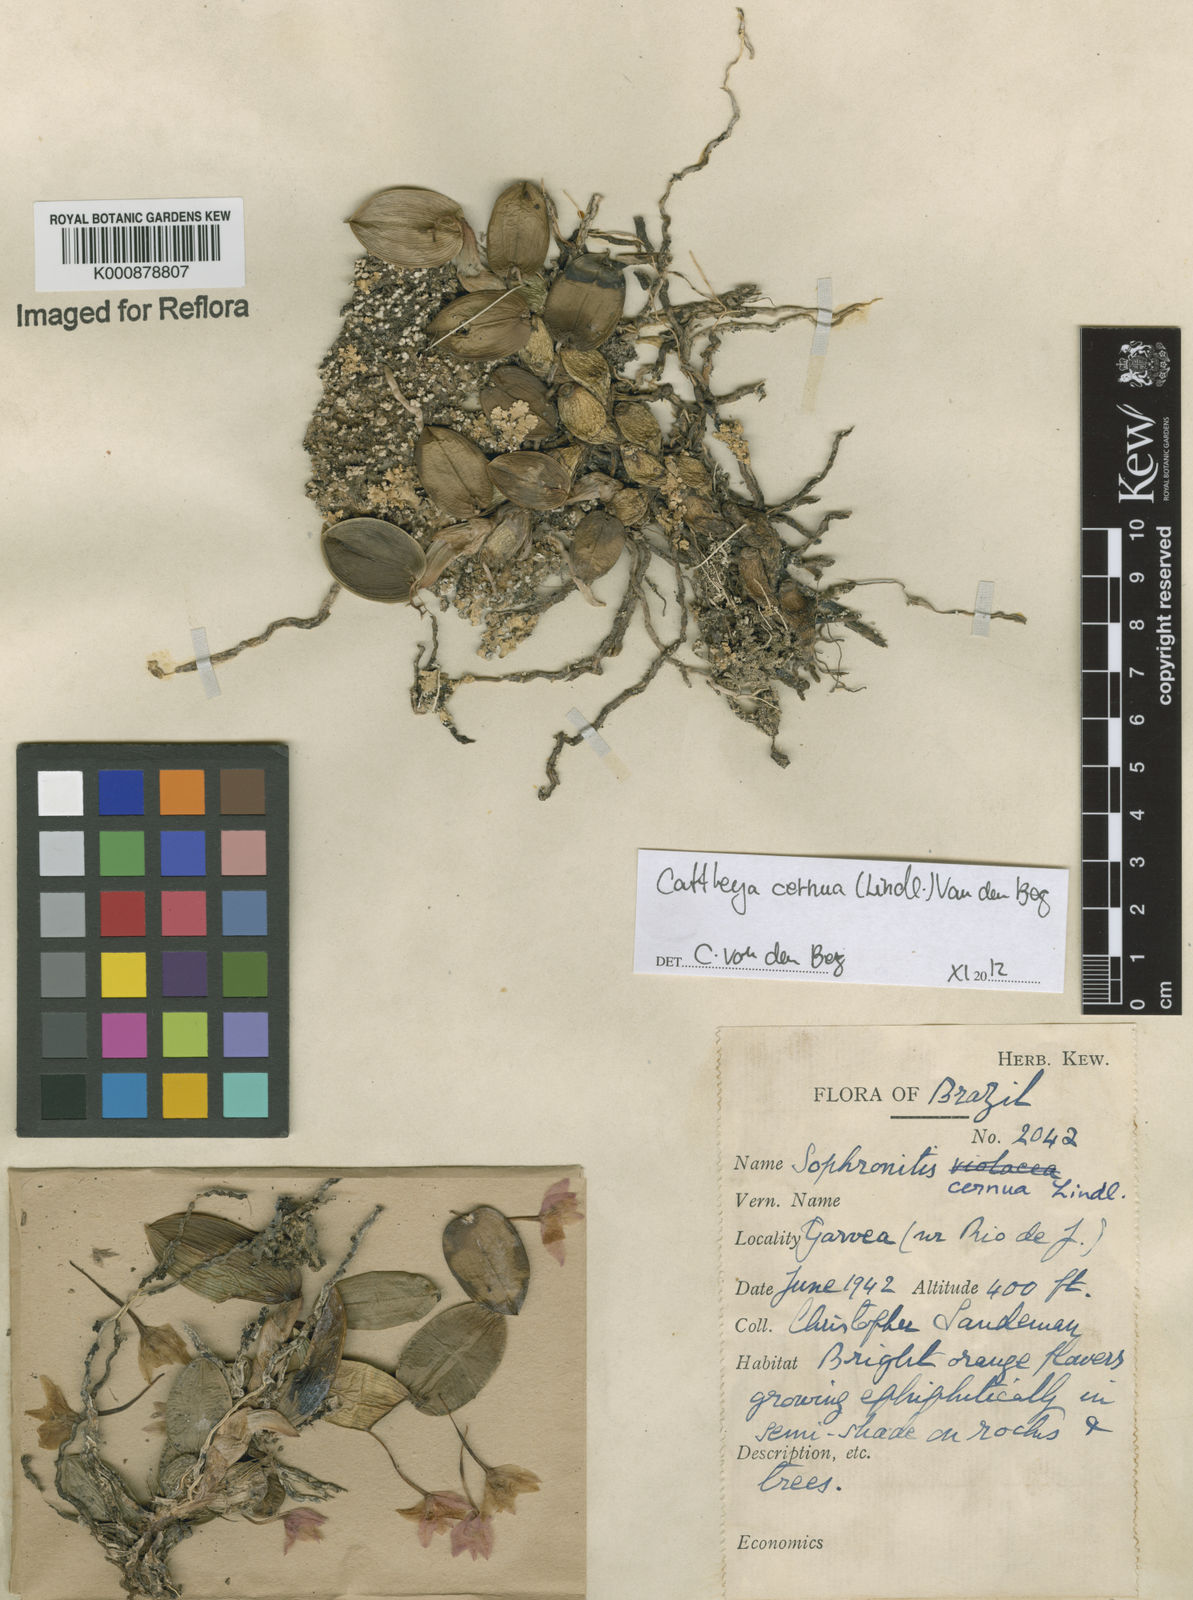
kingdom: Plantae
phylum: Tracheophyta
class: Liliopsida
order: Asparagales
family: Orchidaceae
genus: Cattleya
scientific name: Cattleya
